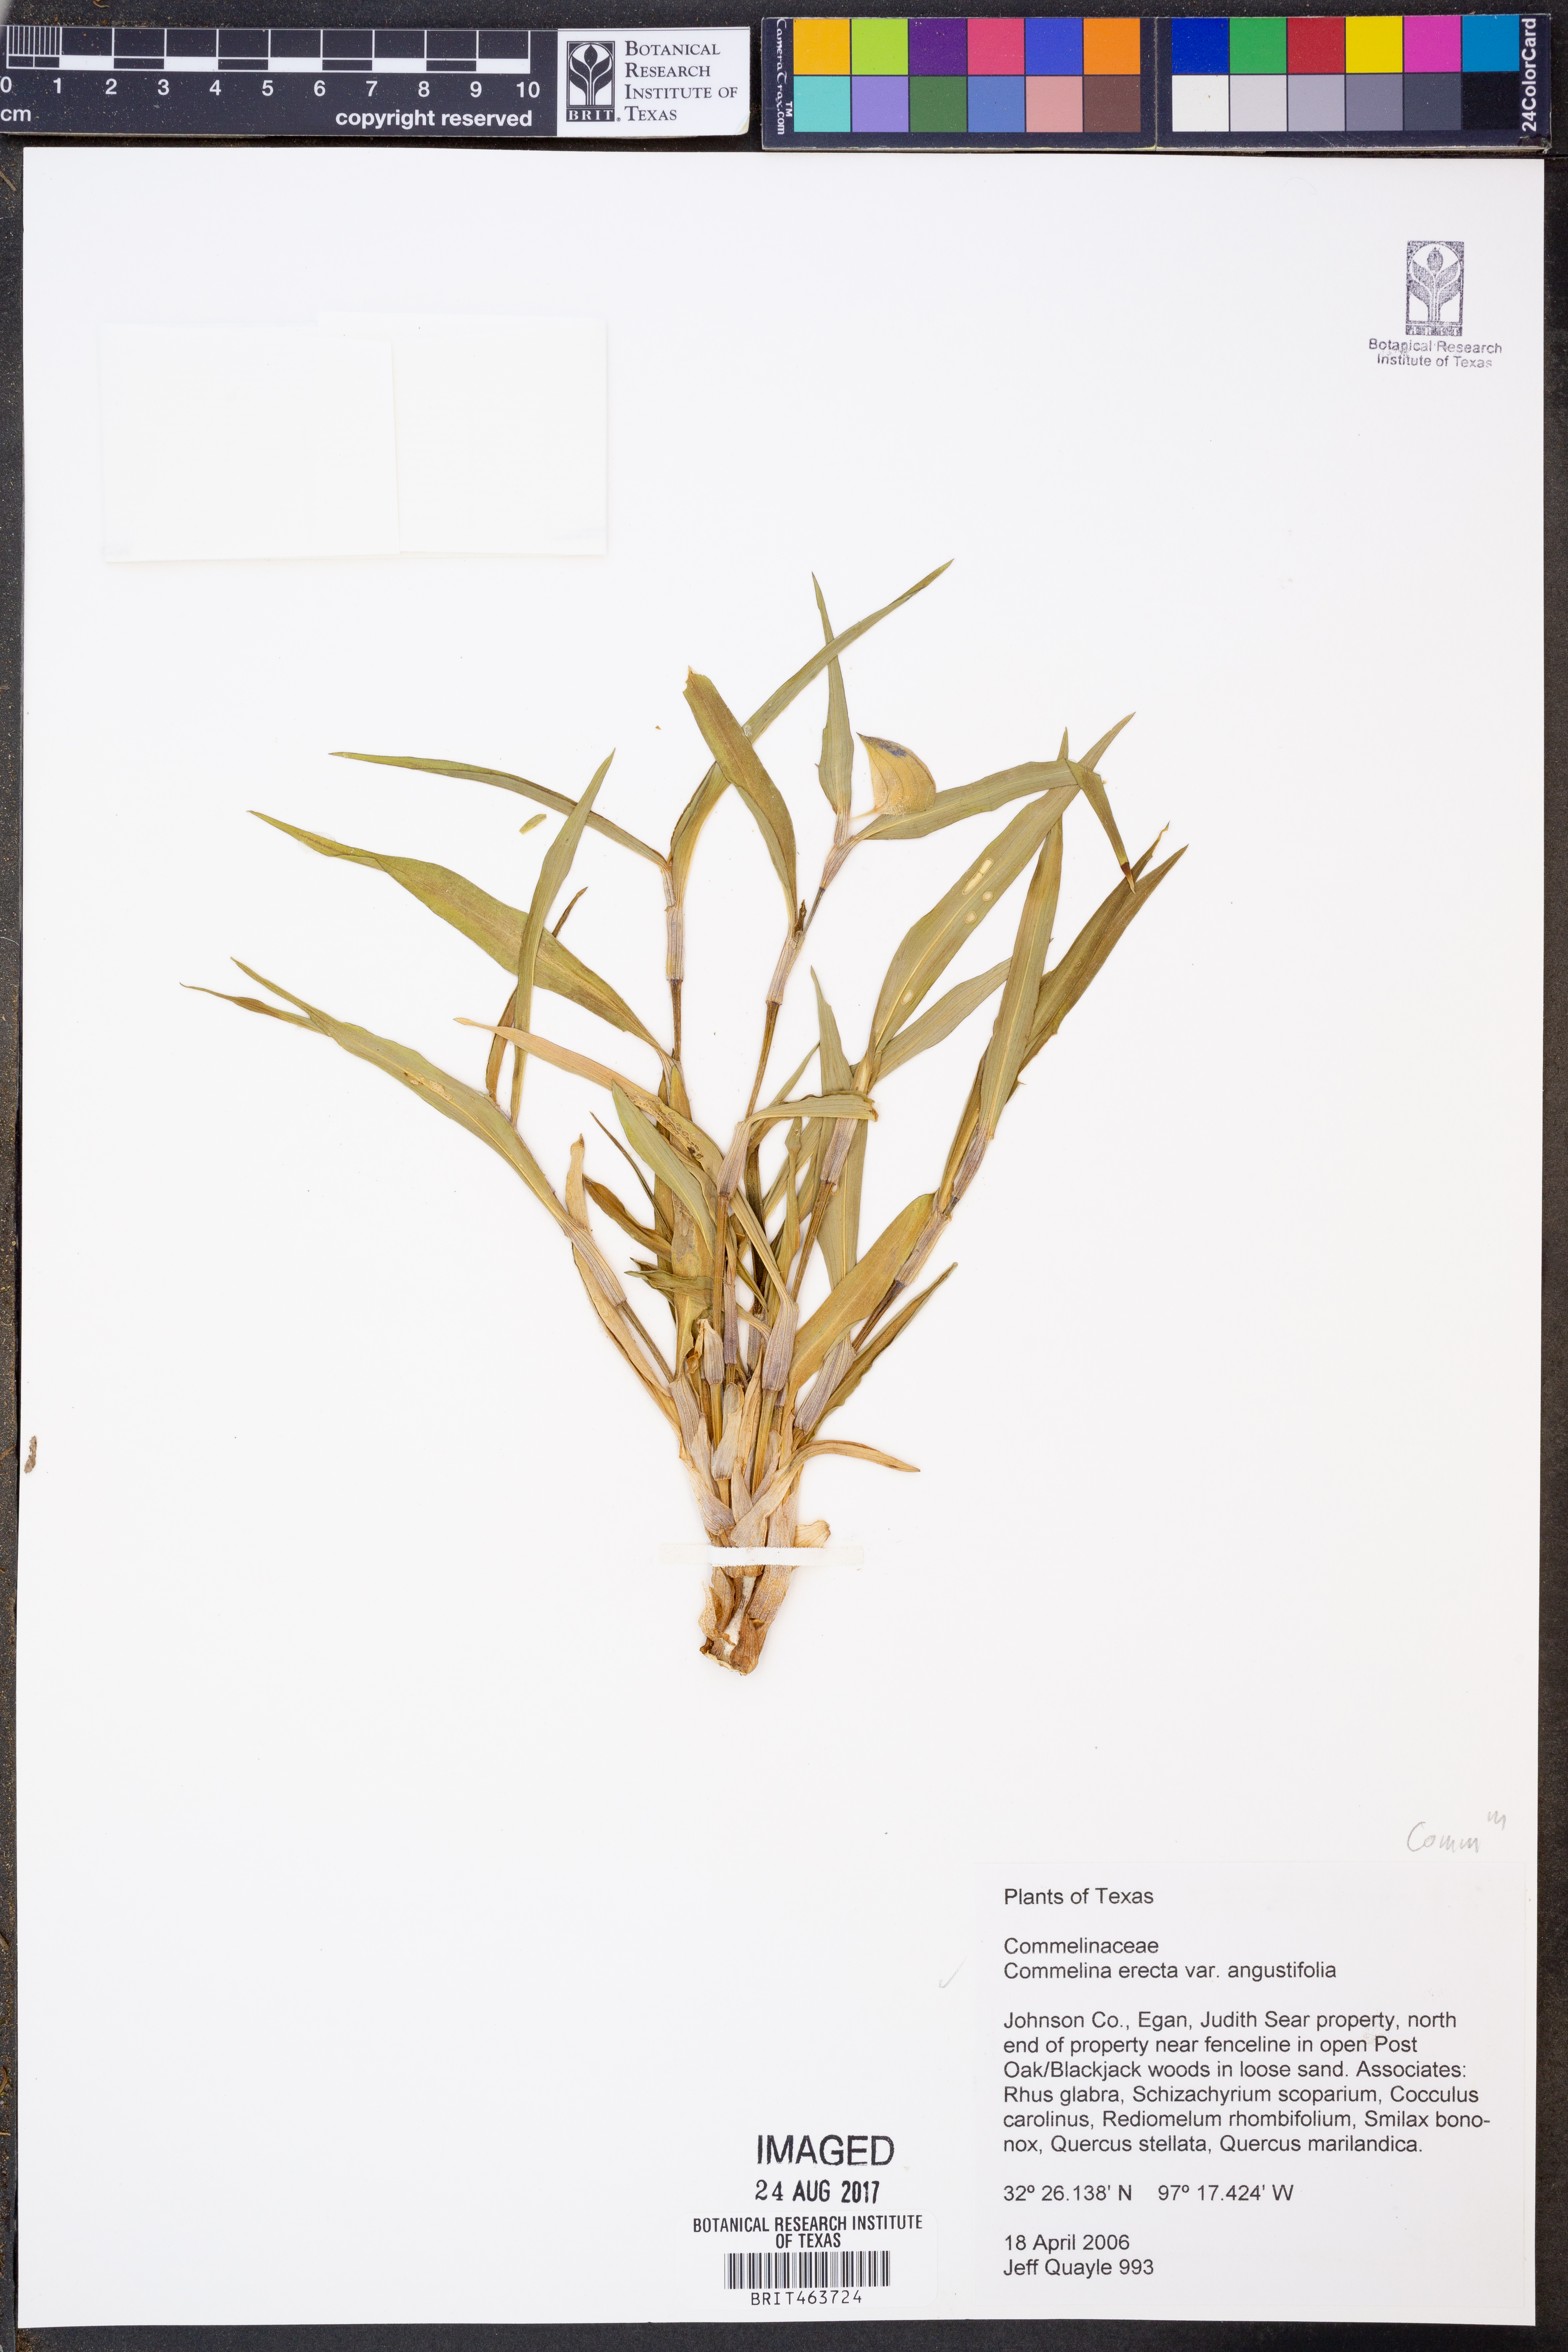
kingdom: Plantae
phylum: Tracheophyta
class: Liliopsida
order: Commelinales
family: Commelinaceae
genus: Commelina
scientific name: Commelina erecta
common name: Blousel blommetjie
